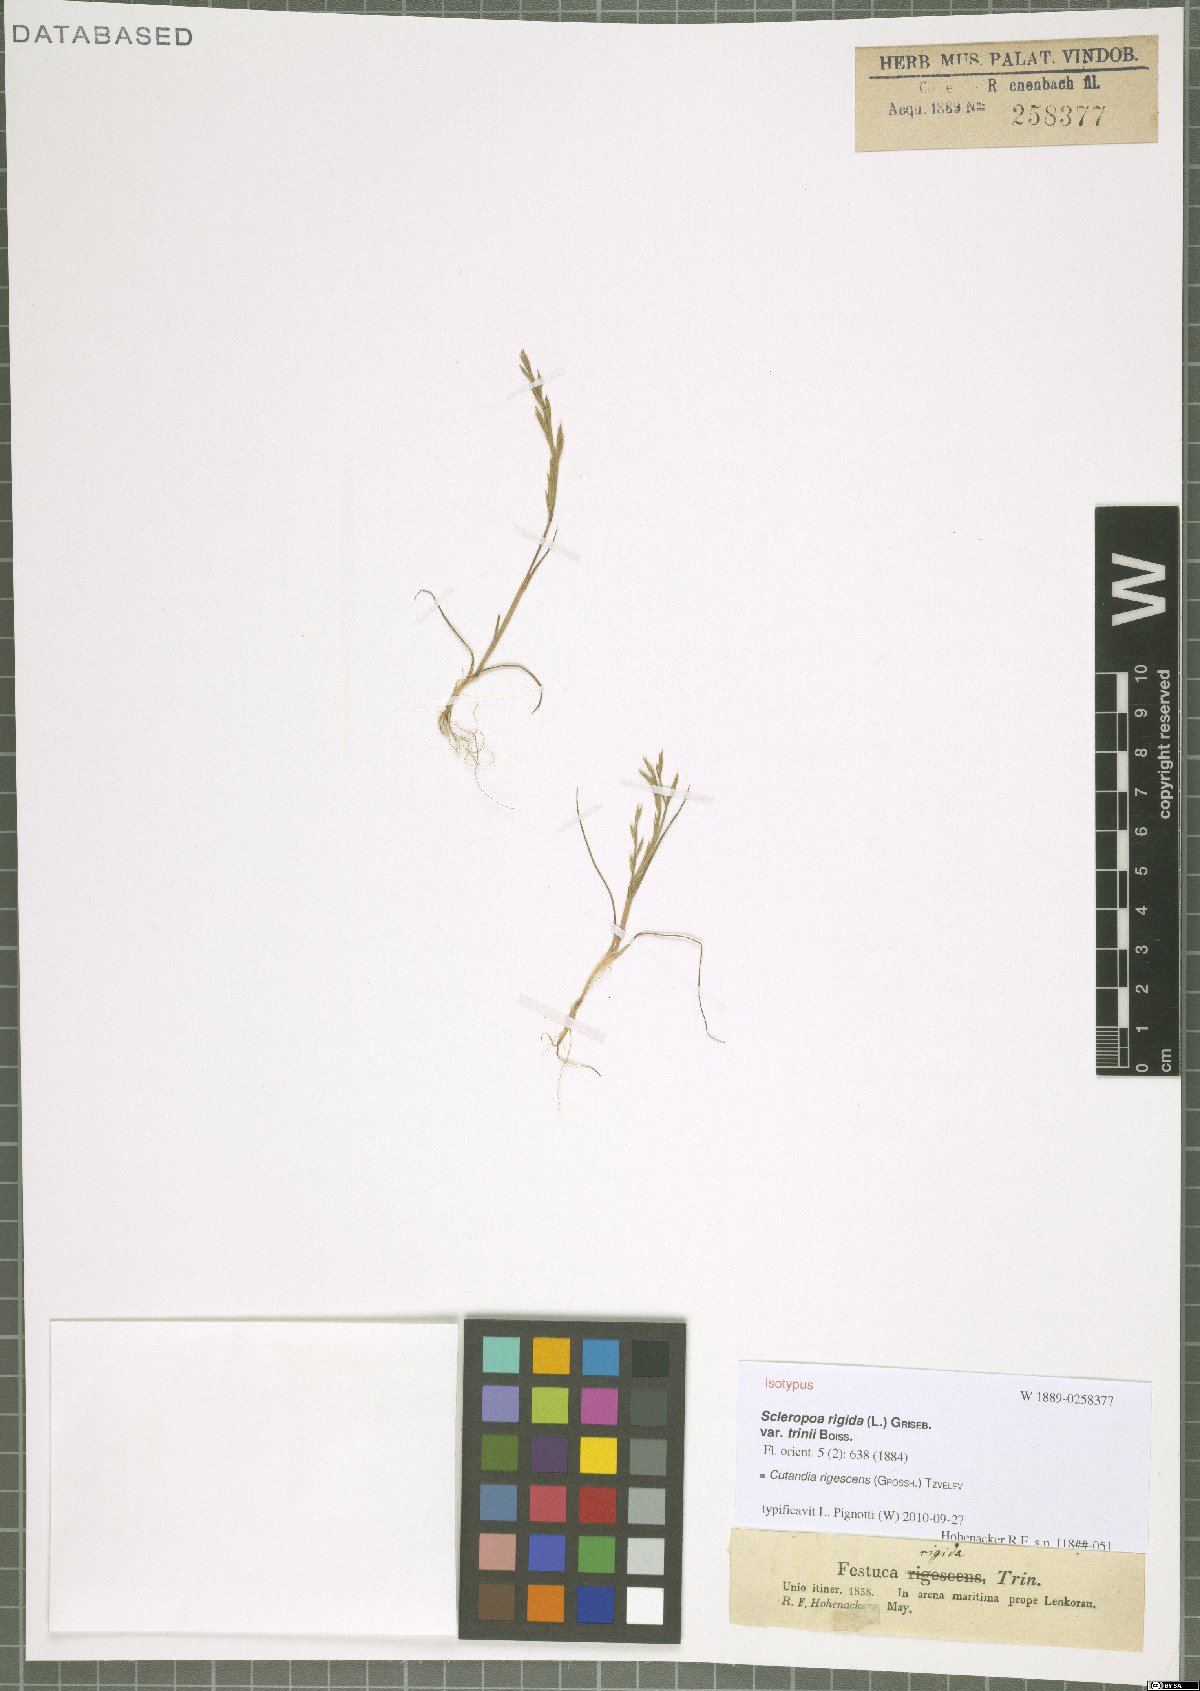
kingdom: Plantae
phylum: Tracheophyta
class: Liliopsida
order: Poales
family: Poaceae
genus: Cutandia
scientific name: Cutandia rigescens
